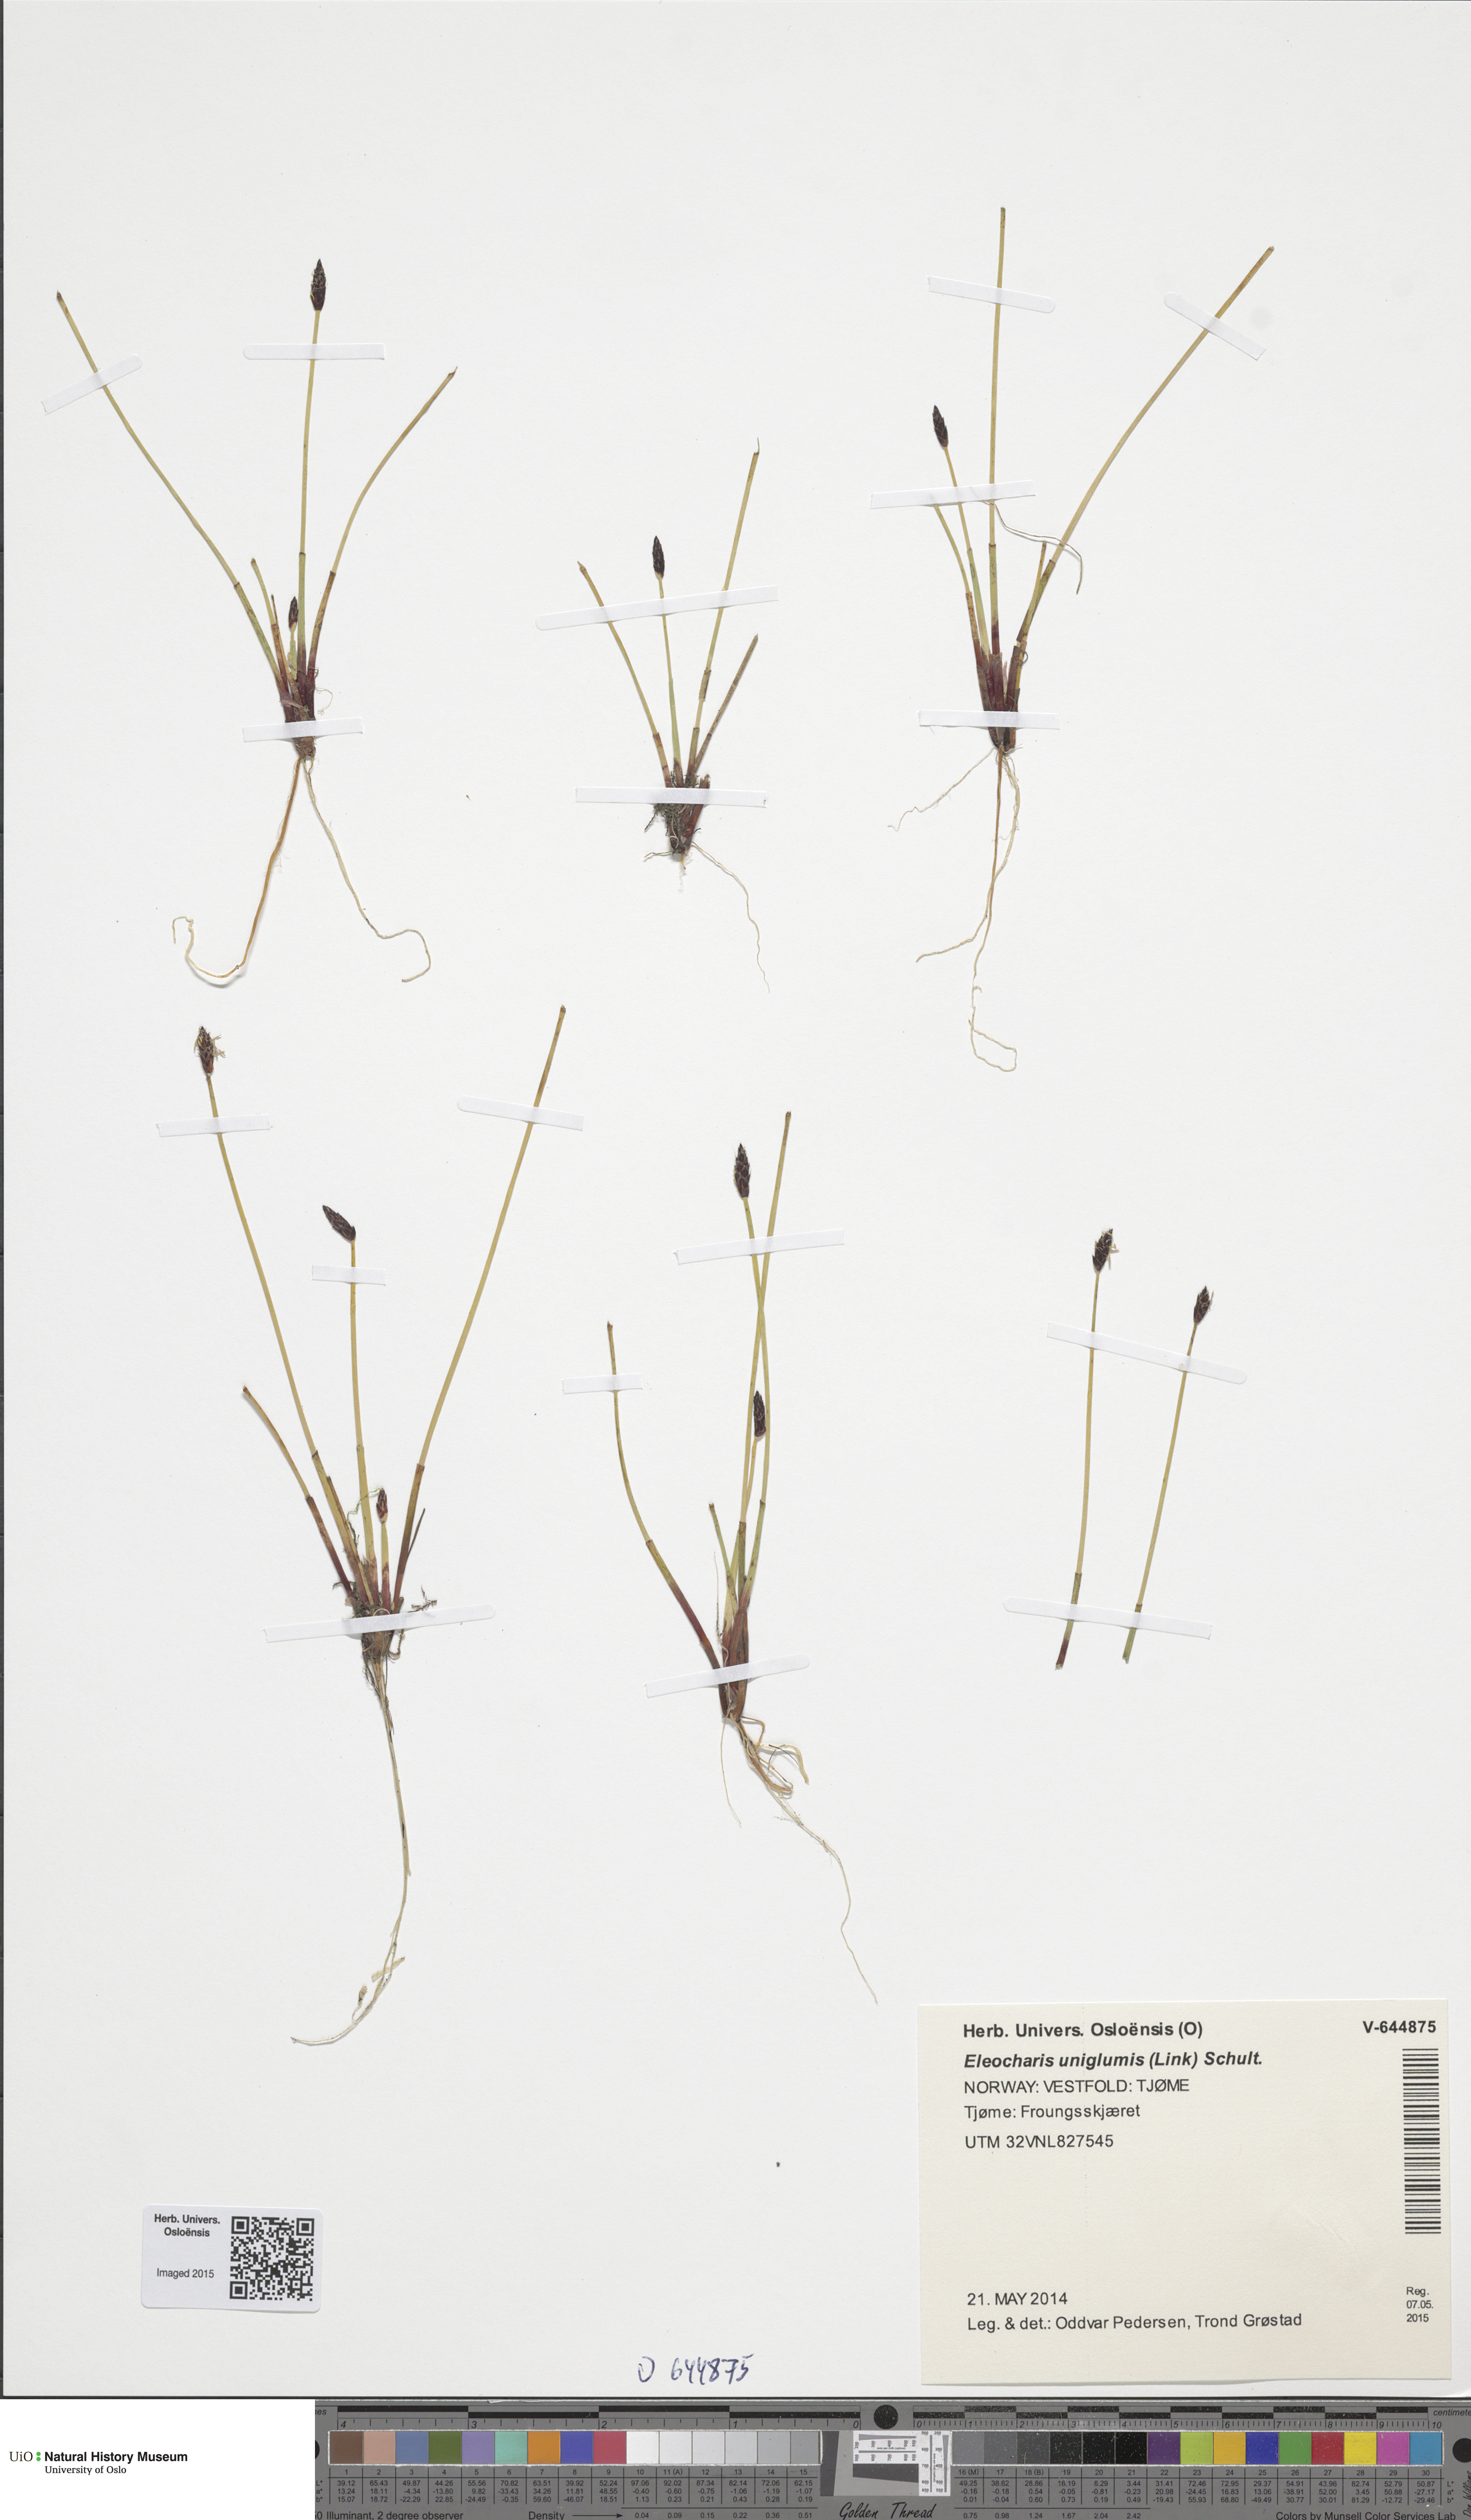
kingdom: Plantae
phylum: Tracheophyta
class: Liliopsida
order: Poales
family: Cyperaceae
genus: Eleocharis
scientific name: Eleocharis uniglumis
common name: Slender spike-rush
